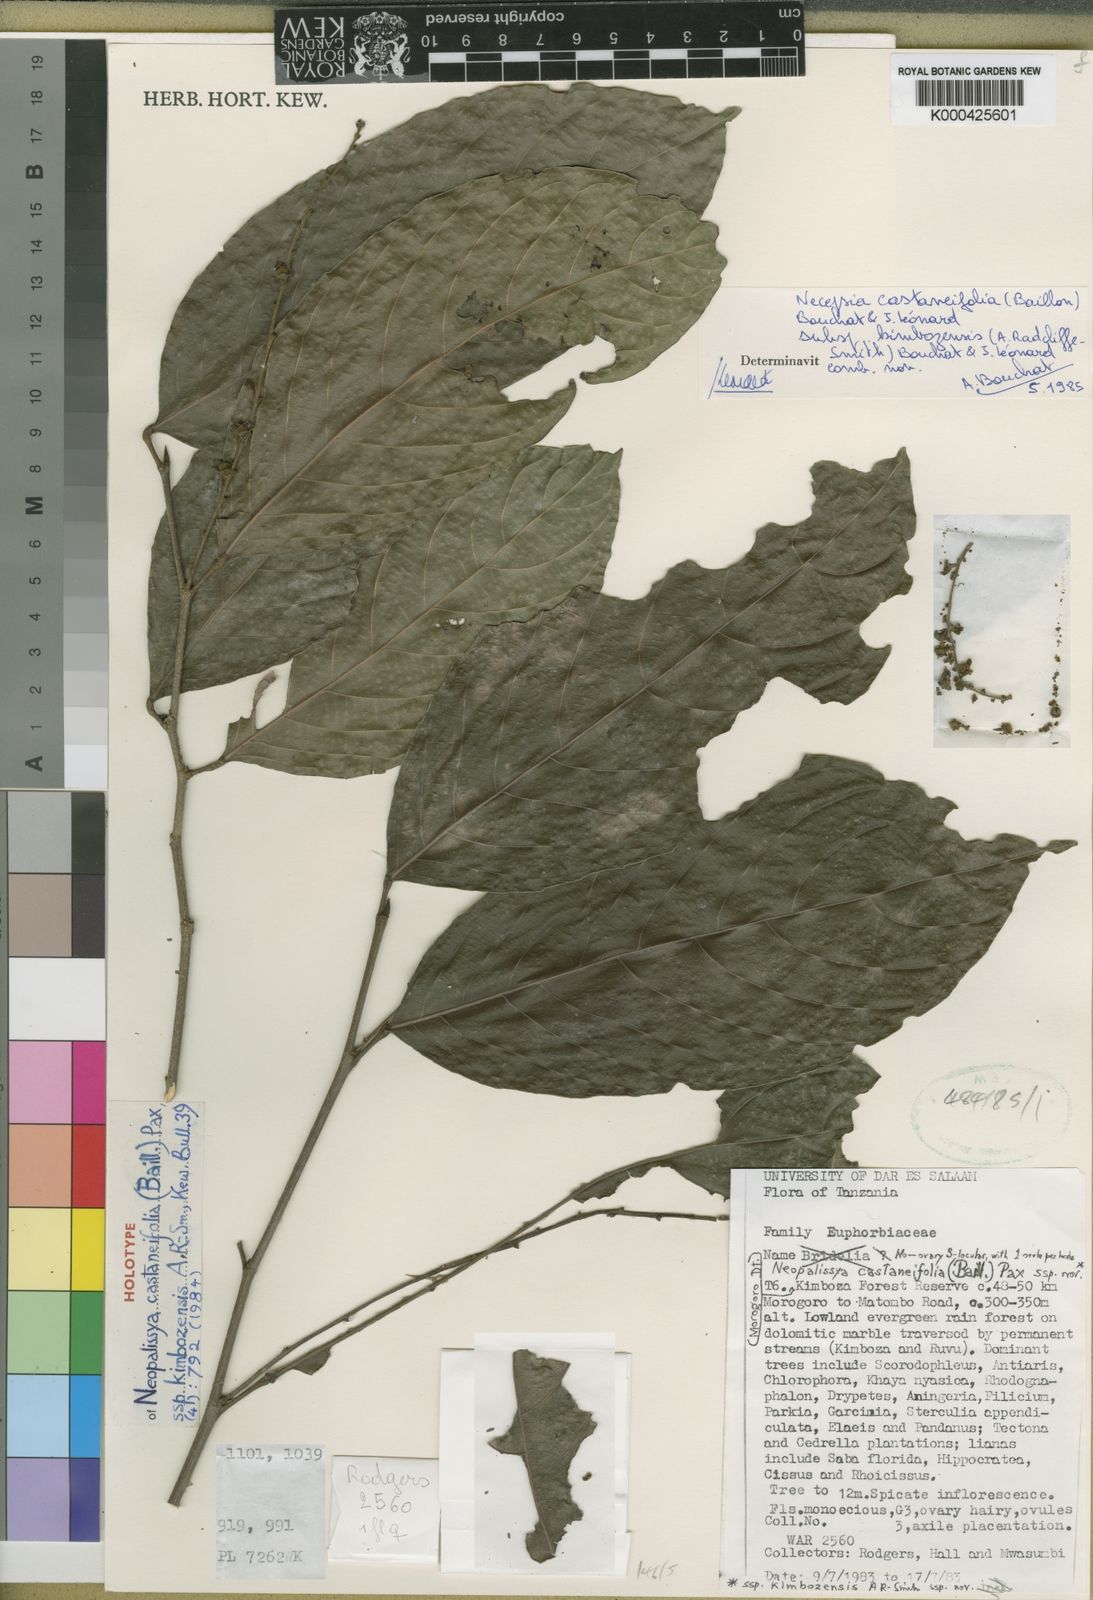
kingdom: Plantae
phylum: Tracheophyta
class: Magnoliopsida
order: Malpighiales
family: Euphorbiaceae
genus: Necepsia
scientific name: Necepsia
